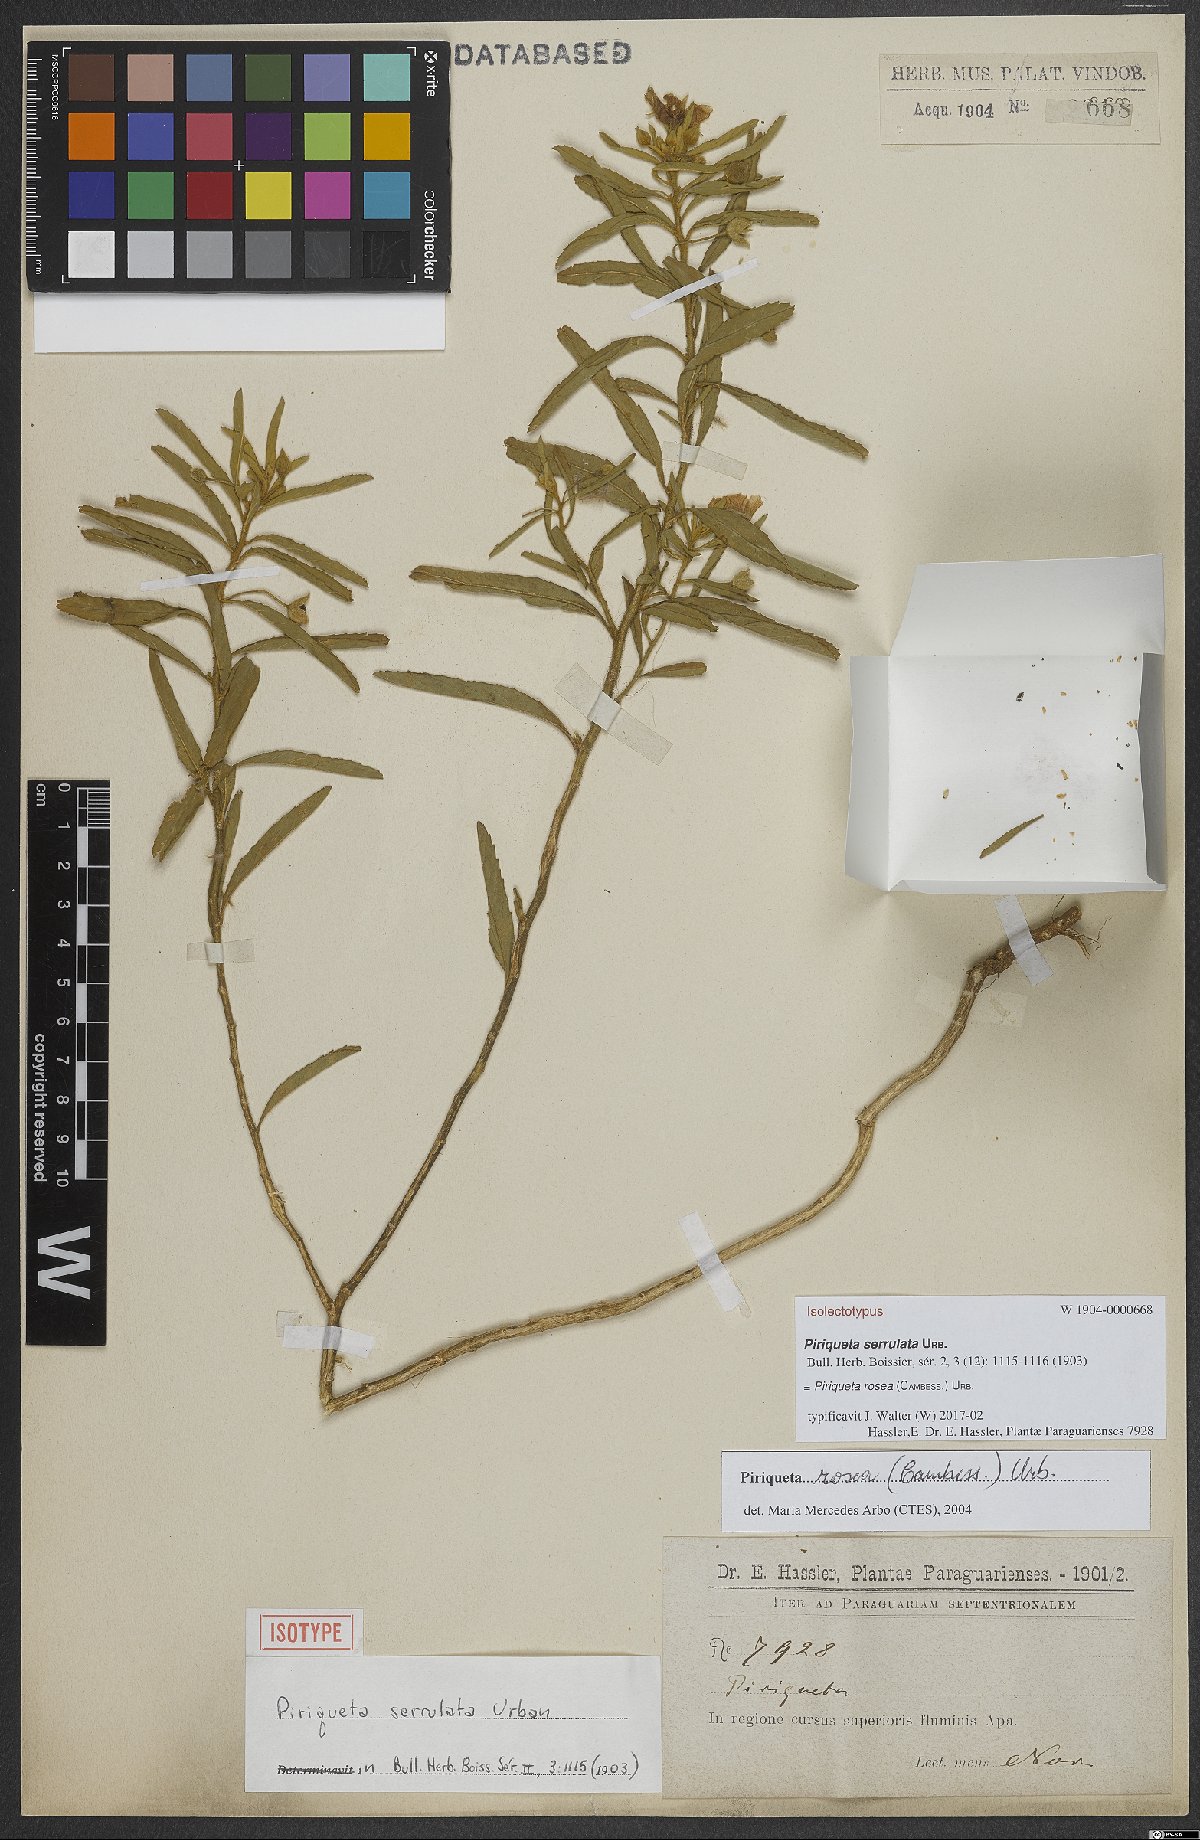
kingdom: Plantae
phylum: Tracheophyta
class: Magnoliopsida
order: Malpighiales
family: Turneraceae
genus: Piriqueta
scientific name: Piriqueta rosea
